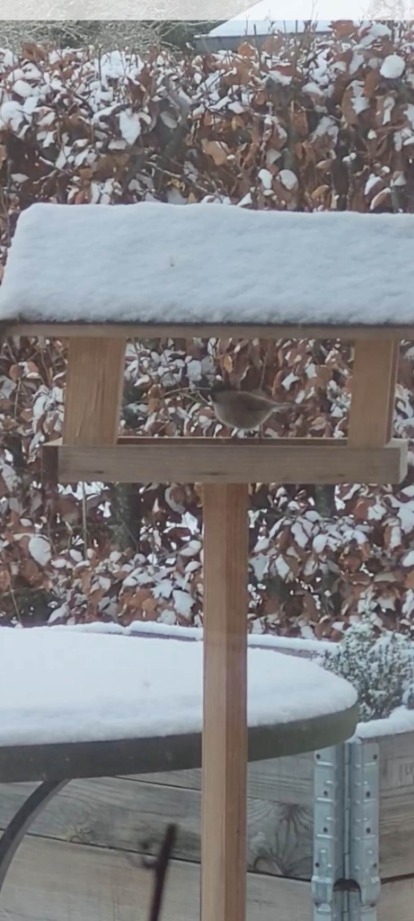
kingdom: Animalia
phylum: Chordata
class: Aves
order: Passeriformes
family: Paridae
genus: Poecile
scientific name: Poecile palustris
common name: Sumpmejse
